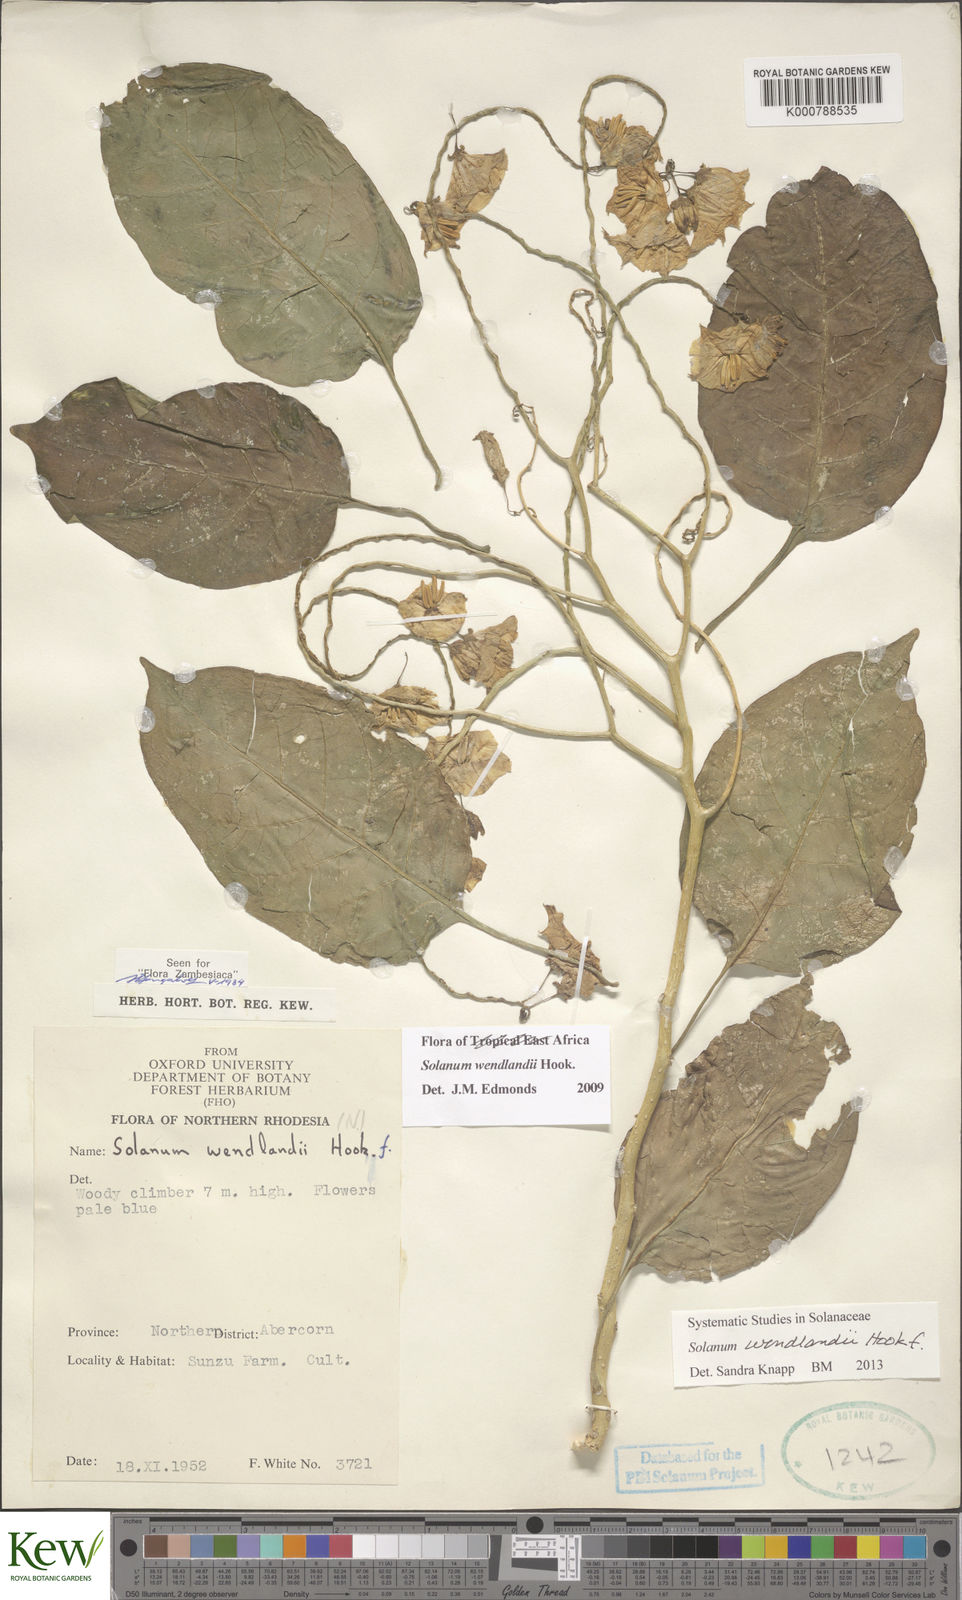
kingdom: Plantae
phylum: Tracheophyta
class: Magnoliopsida
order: Solanales
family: Solanaceae
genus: Solanum
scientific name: Solanum wendlandii
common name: Costa rican nightshade
